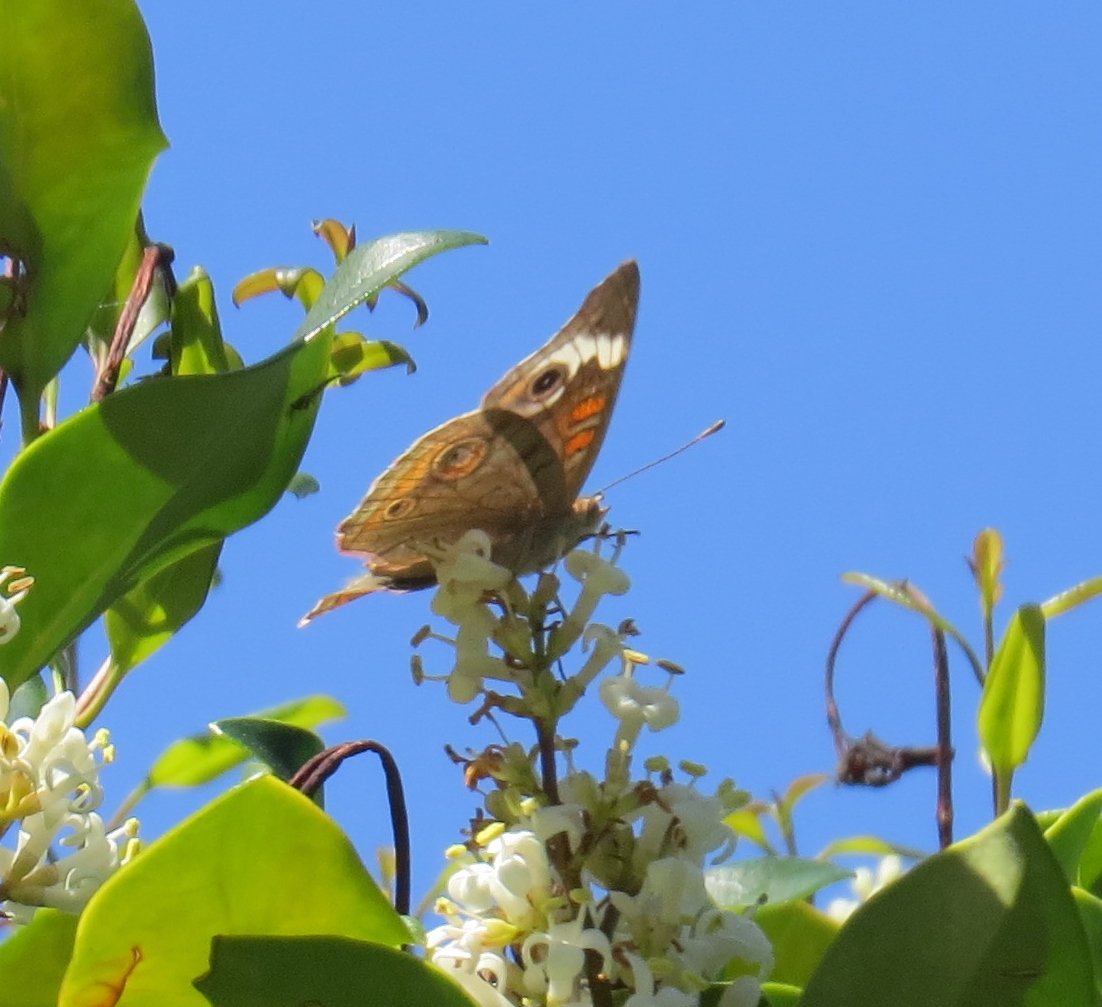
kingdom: Animalia
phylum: Arthropoda
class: Insecta
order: Lepidoptera
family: Nymphalidae
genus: Junonia
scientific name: Junonia coenia
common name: Common Buckeye
